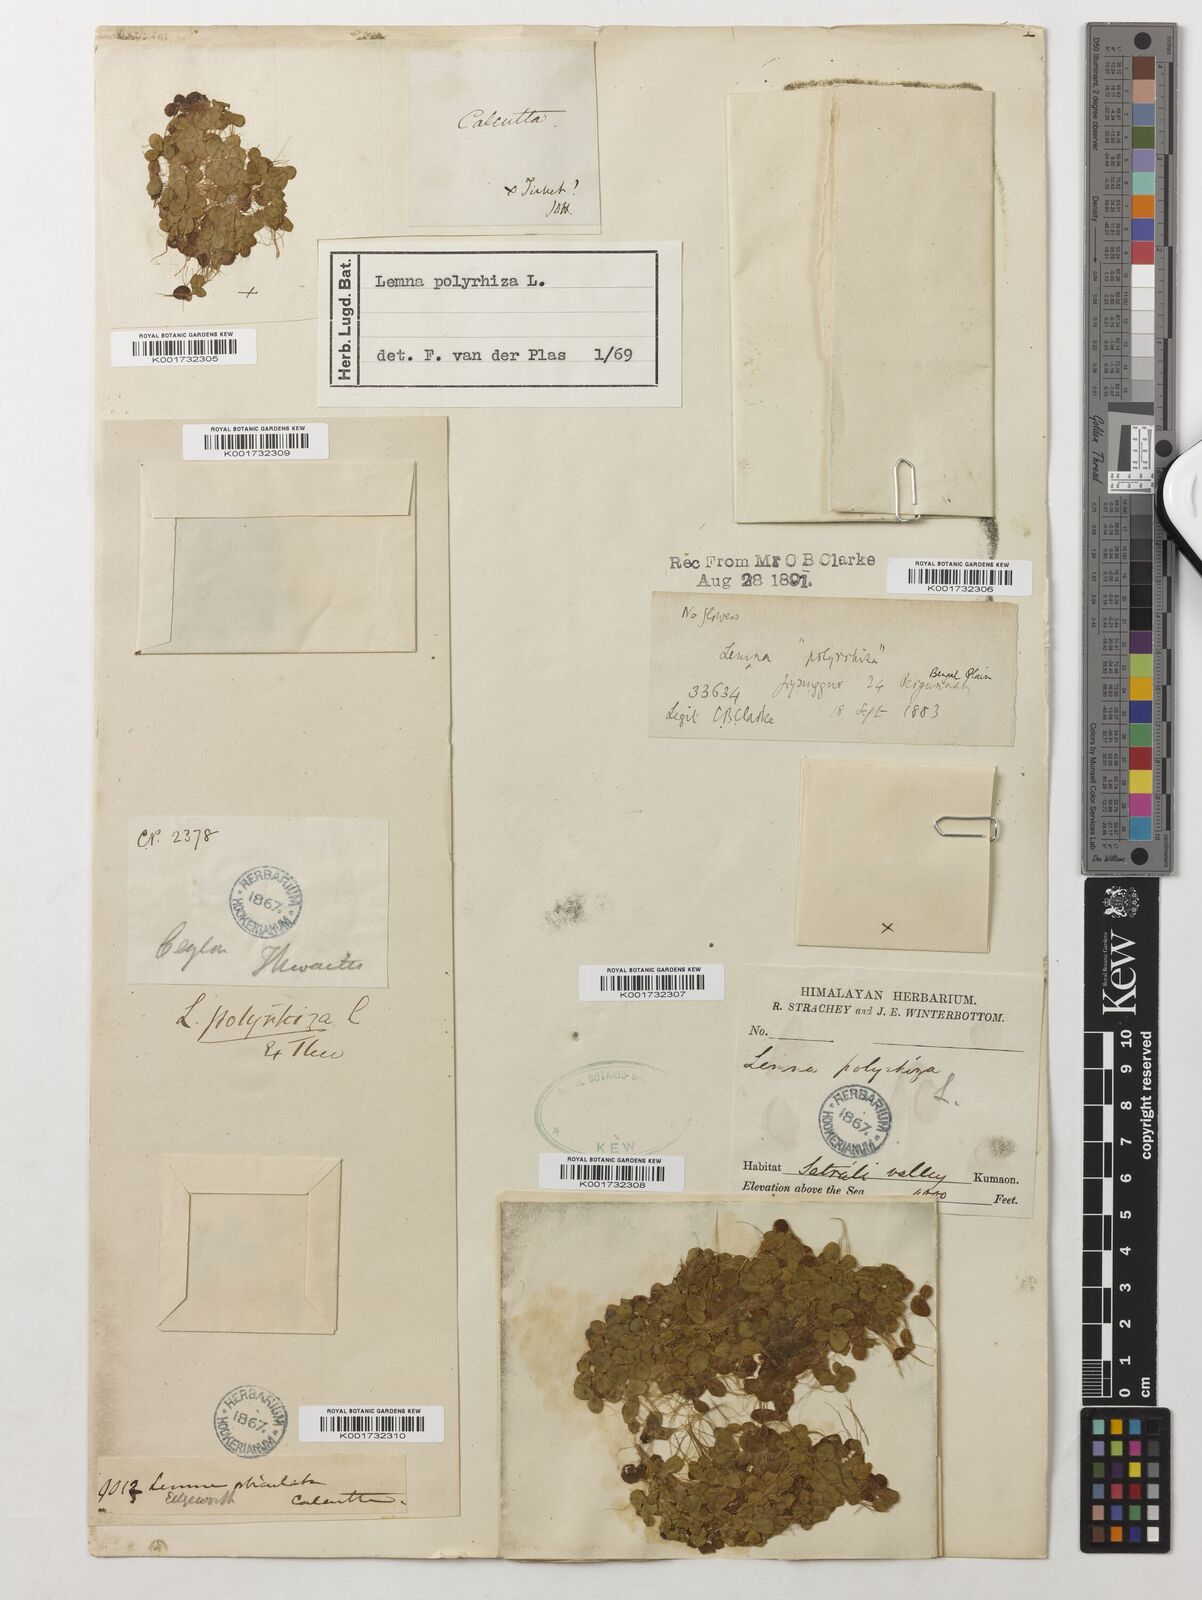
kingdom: Plantae
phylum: Tracheophyta
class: Liliopsida
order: Alismatales
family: Araceae
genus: Spirodela
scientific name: Spirodela polyrhiza
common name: Great duckweed
